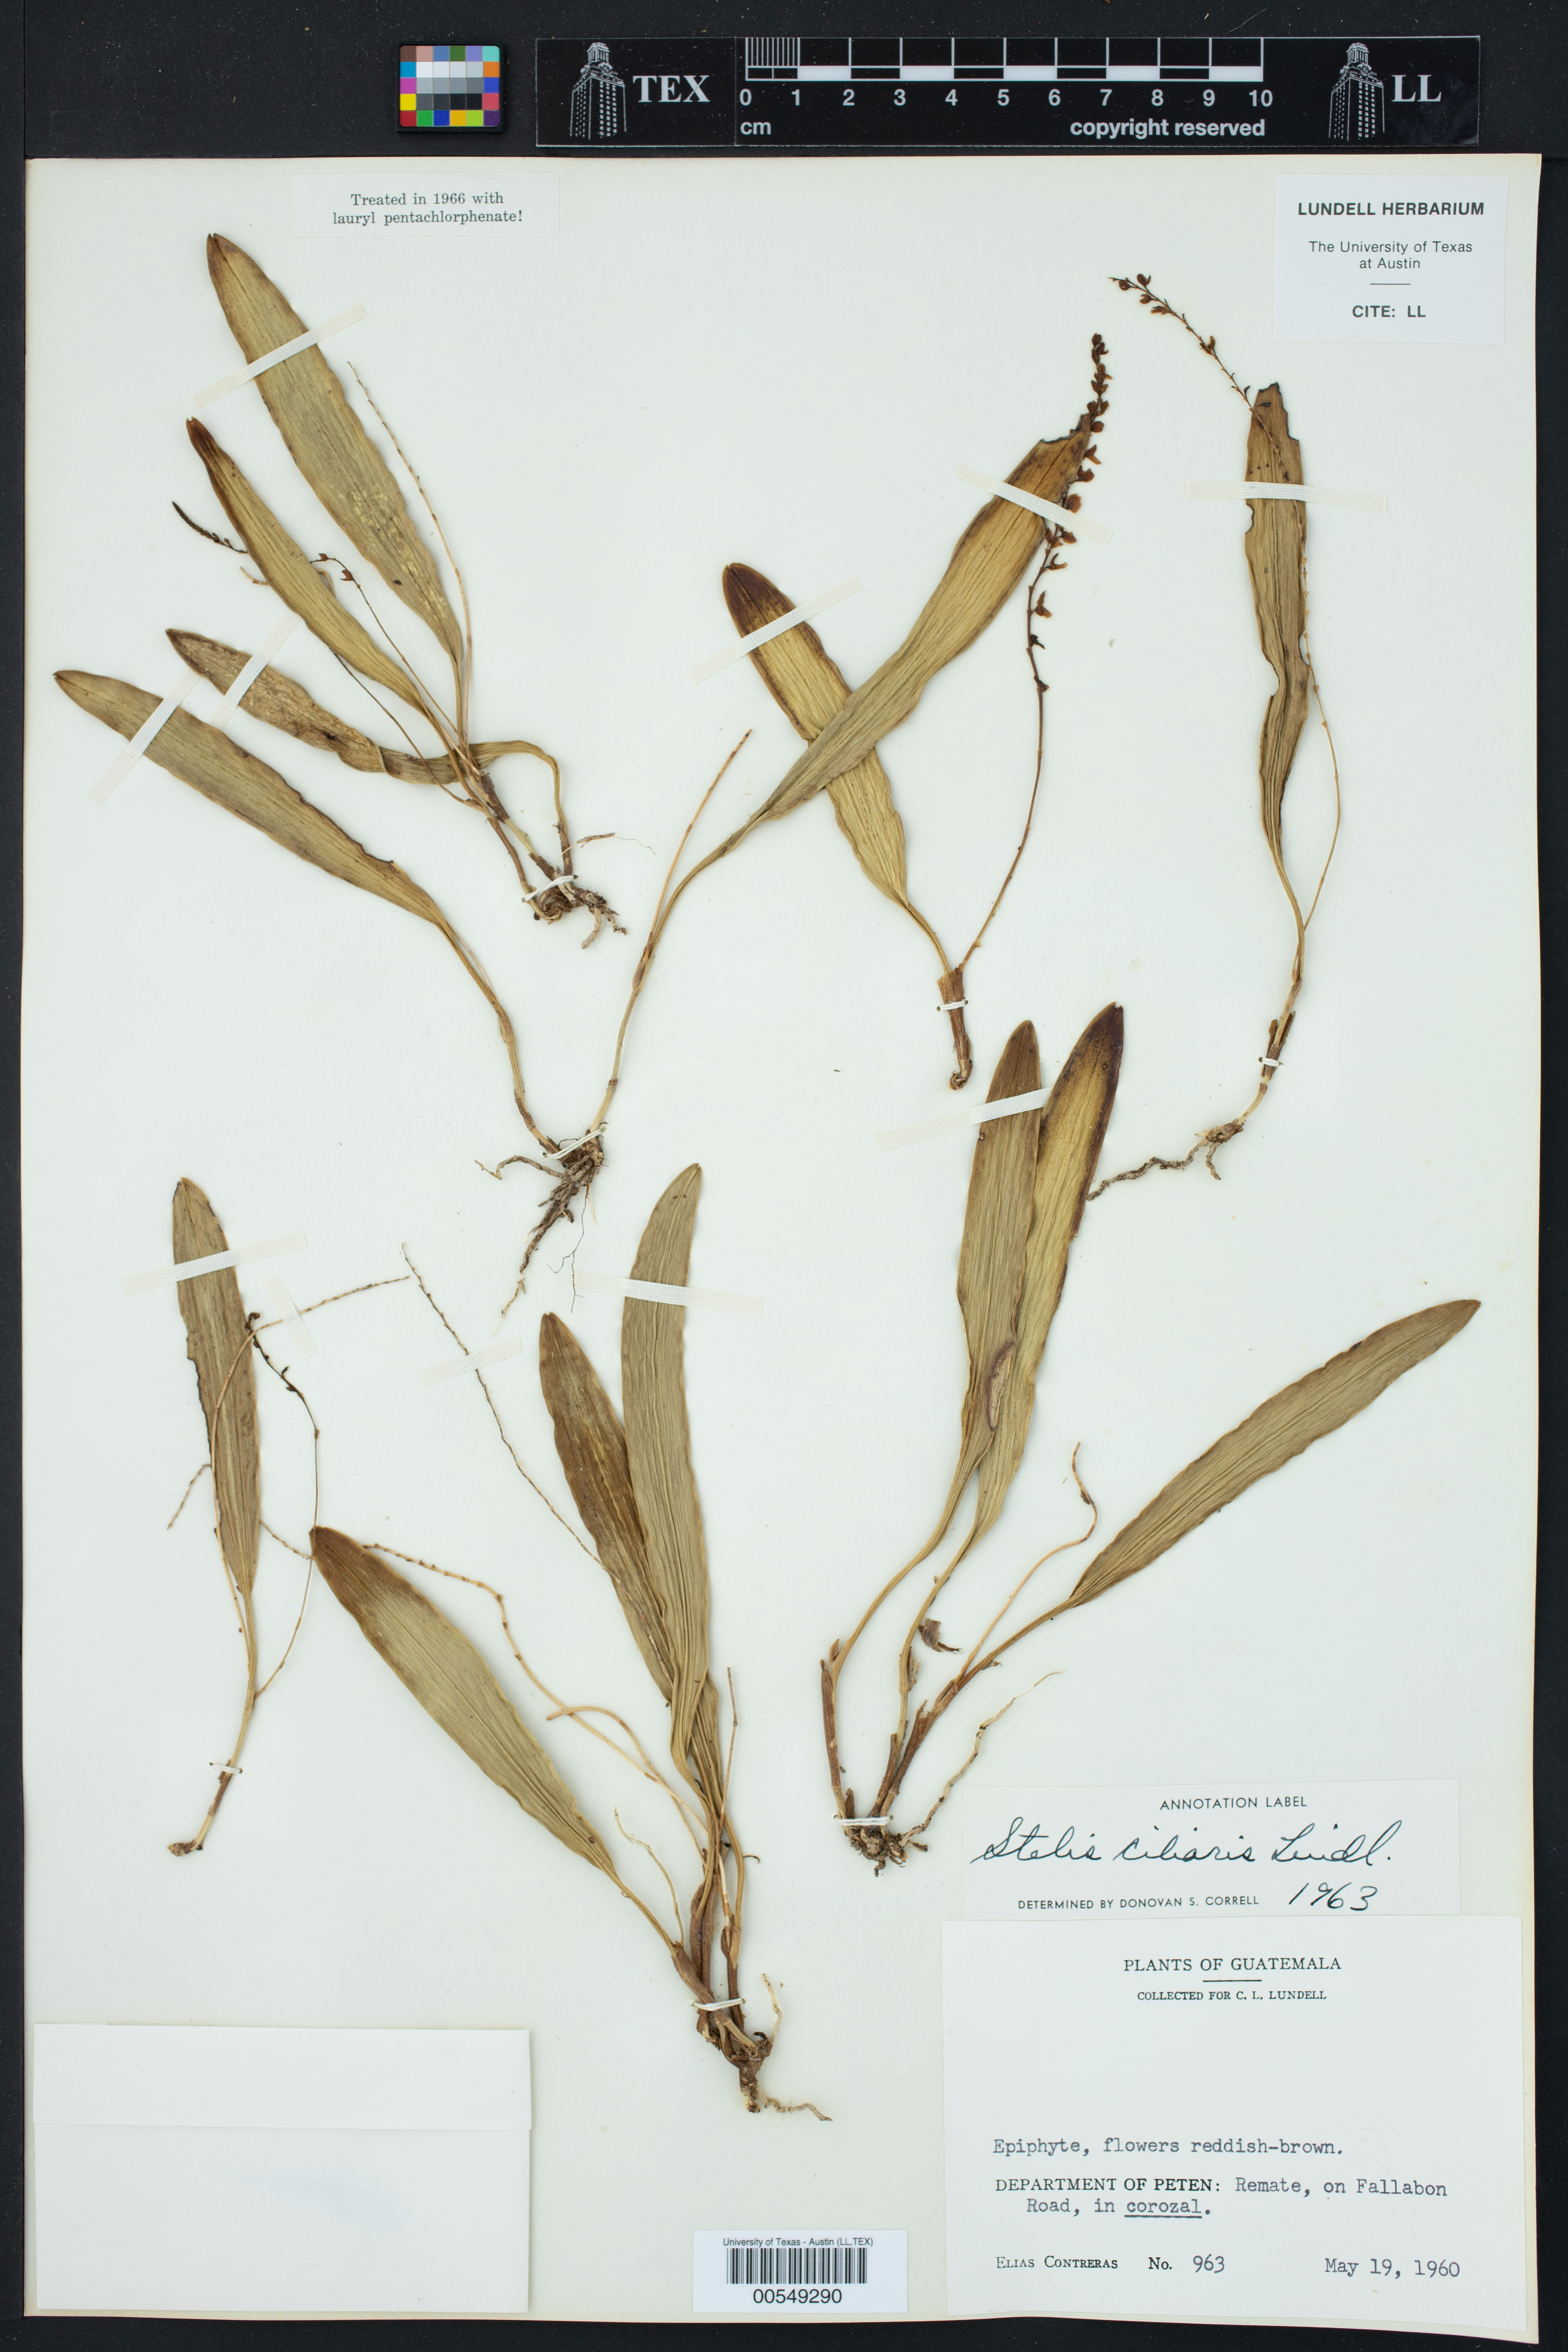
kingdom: Plantae
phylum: Tracheophyta
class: Liliopsida
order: Asparagales
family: Orchidaceae
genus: Stelis
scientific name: Stelis ciliaris
